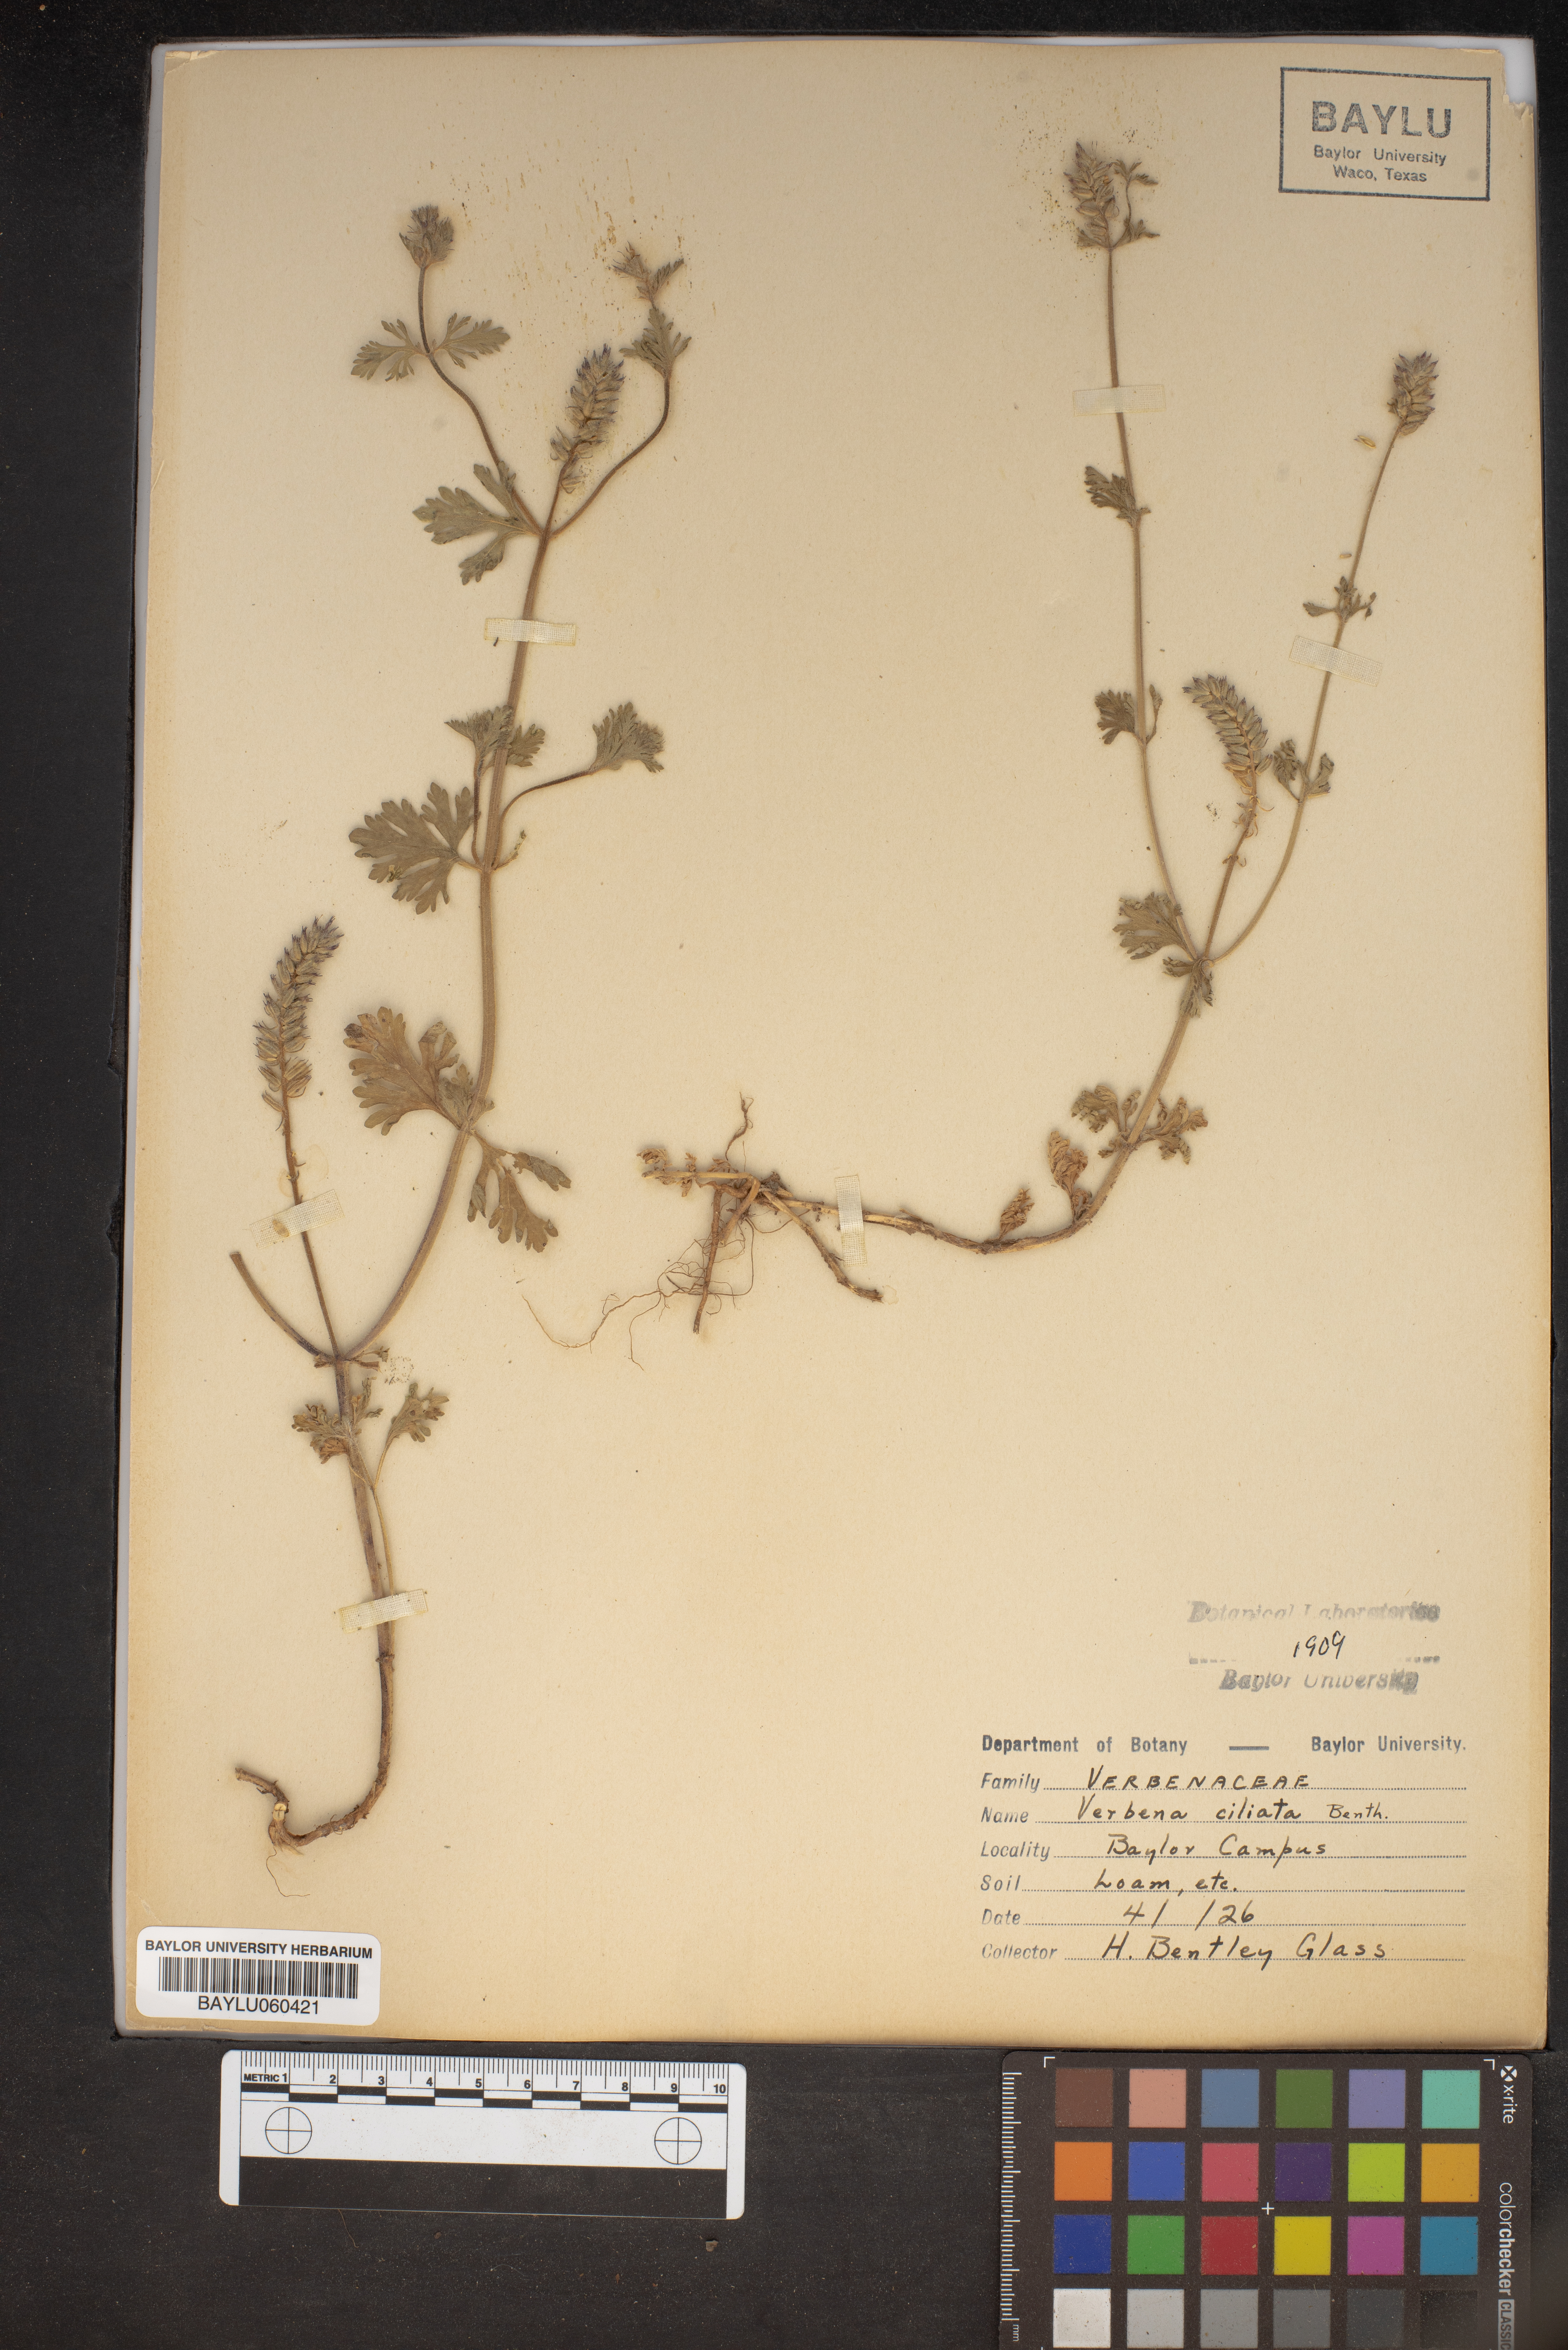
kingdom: Plantae
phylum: Tracheophyta
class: Magnoliopsida
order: Lamiales
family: Verbenaceae
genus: Verbena
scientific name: Verbena bipinnatifida
